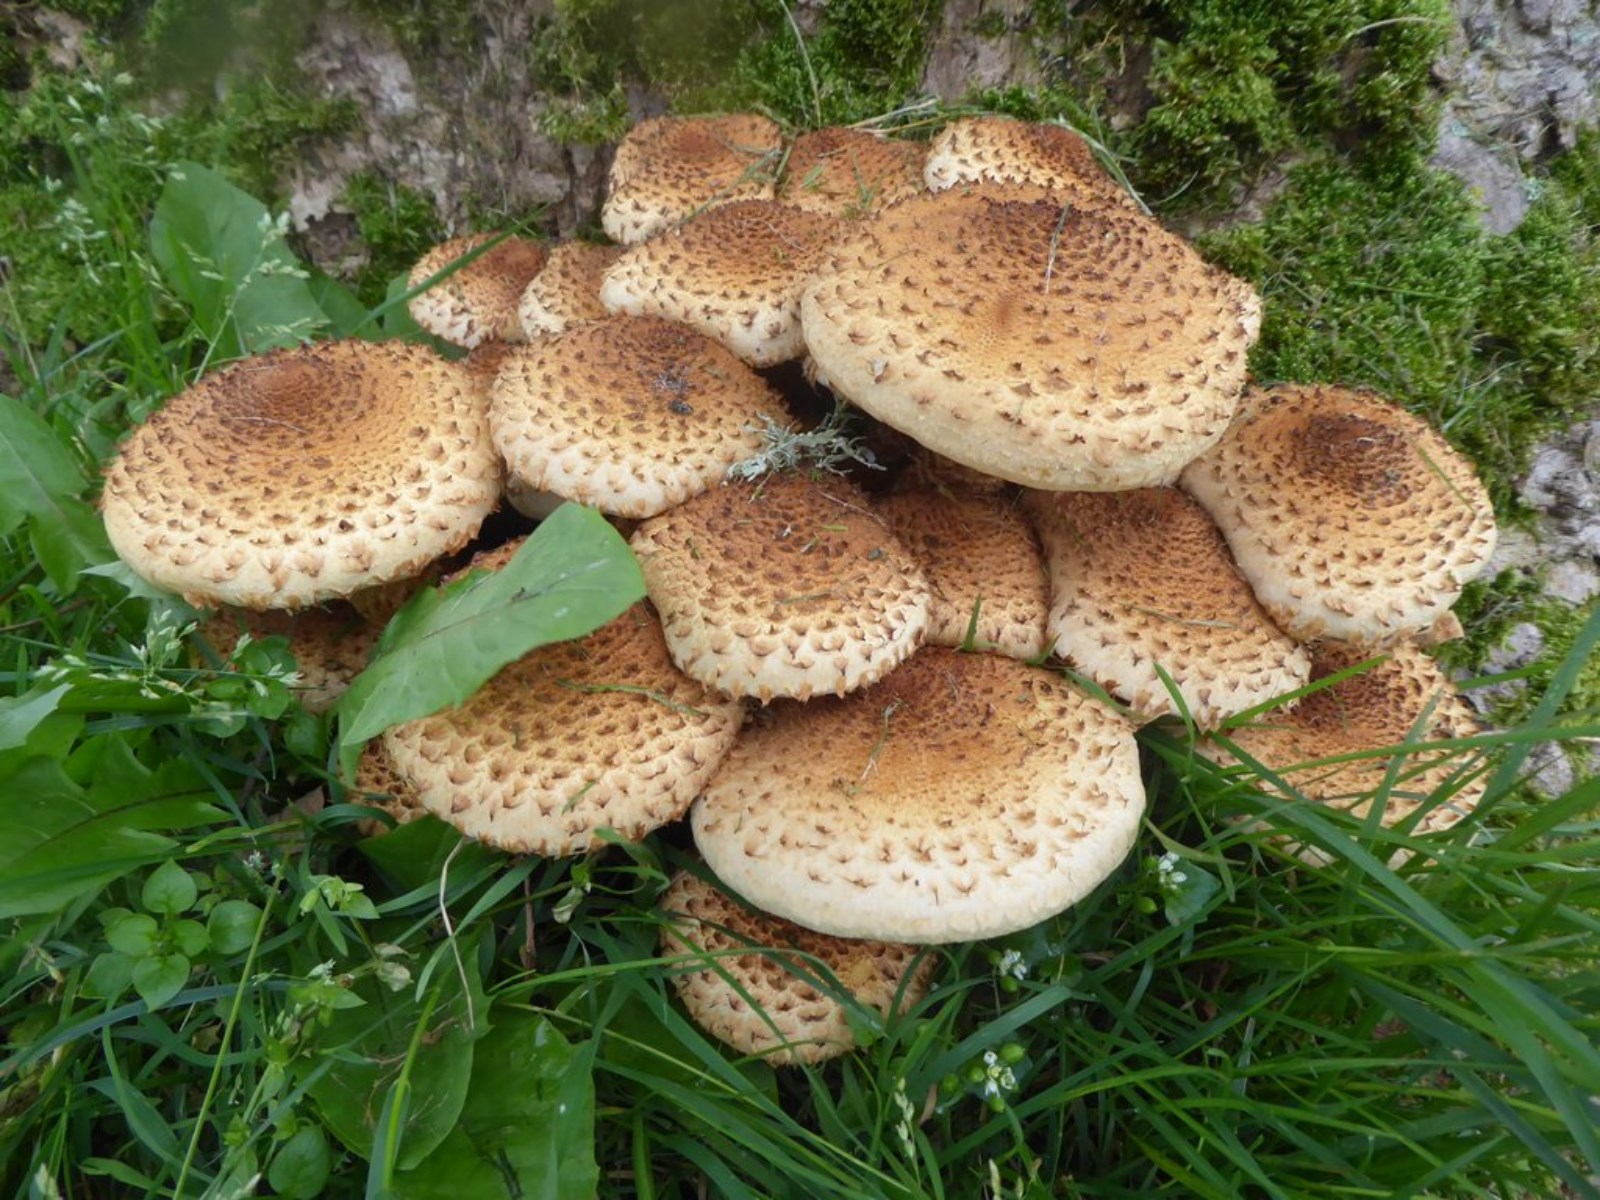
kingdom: Fungi
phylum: Basidiomycota
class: Agaricomycetes
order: Agaricales
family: Strophariaceae
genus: Pholiota
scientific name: Pholiota squarrosa
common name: krumskællet skælhat
